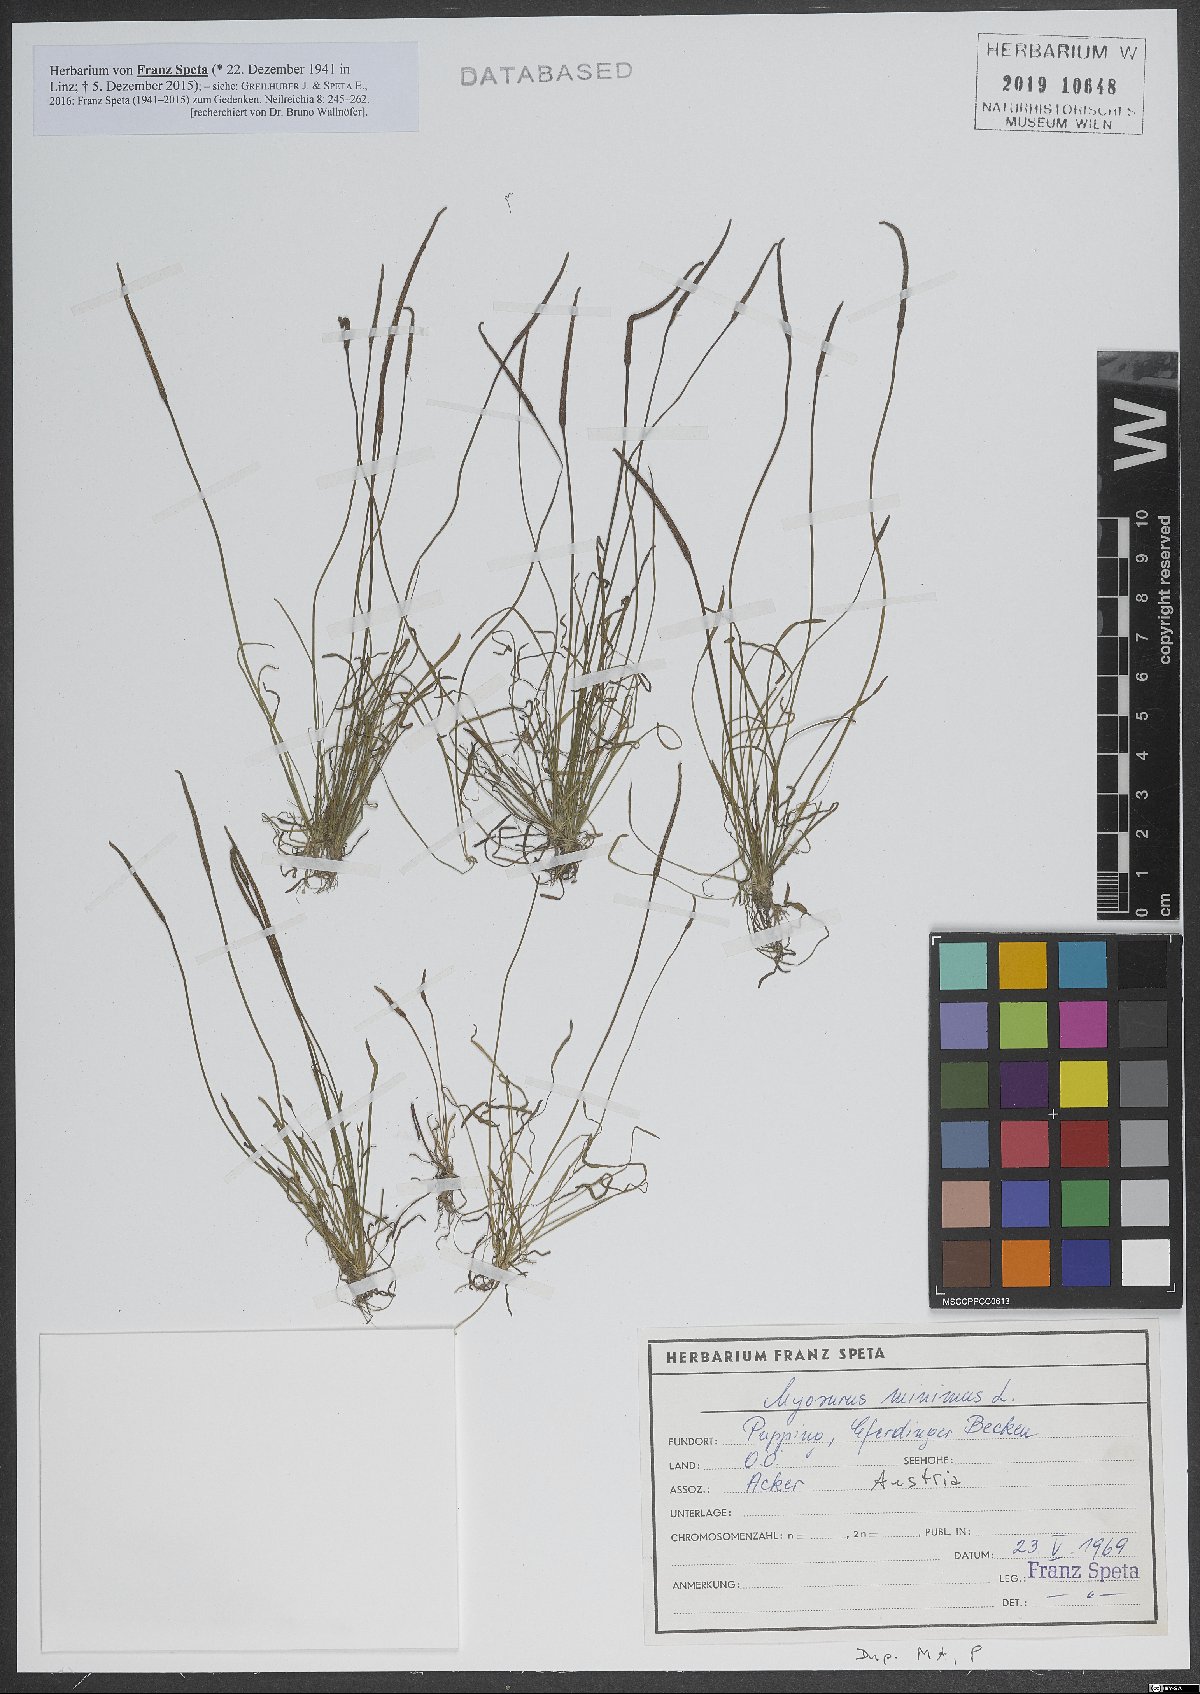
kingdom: Plantae
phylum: Tracheophyta
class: Magnoliopsida
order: Ranunculales
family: Ranunculaceae
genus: Myosurus
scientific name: Myosurus minimus
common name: Mousetail
